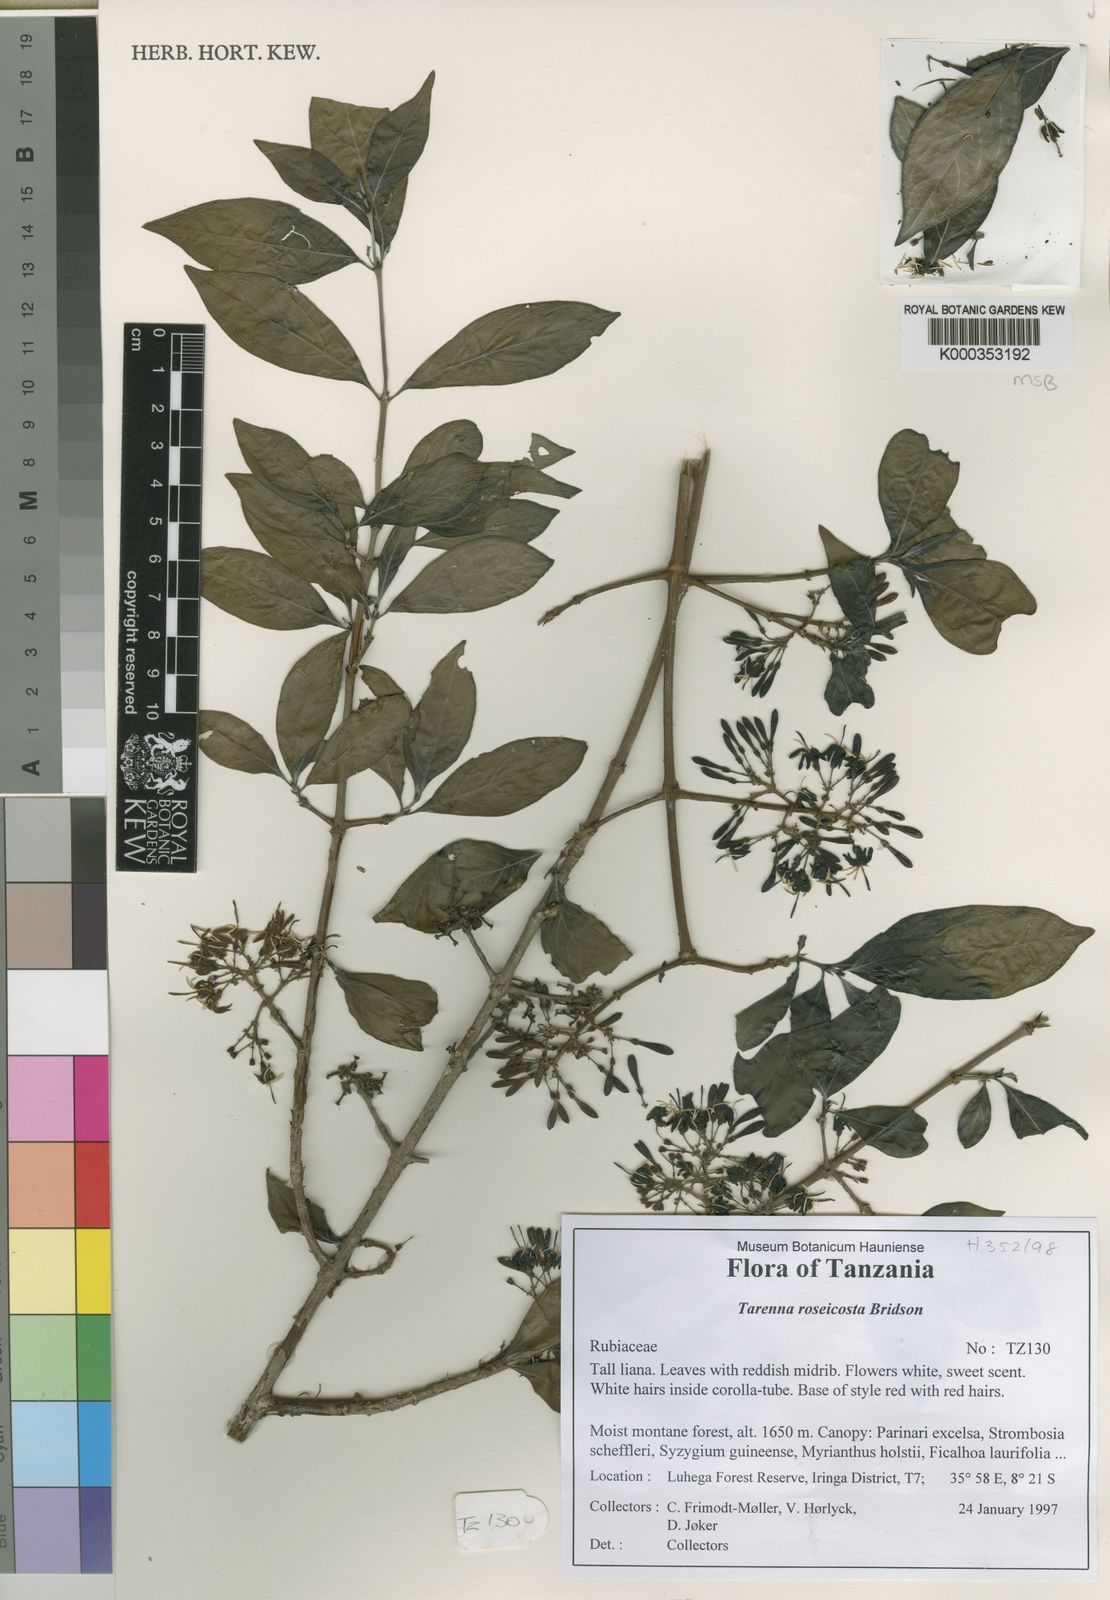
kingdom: Plantae
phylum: Tracheophyta
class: Magnoliopsida
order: Gentianales
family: Rubiaceae
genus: Tarenna
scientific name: Tarenna roseicosta
